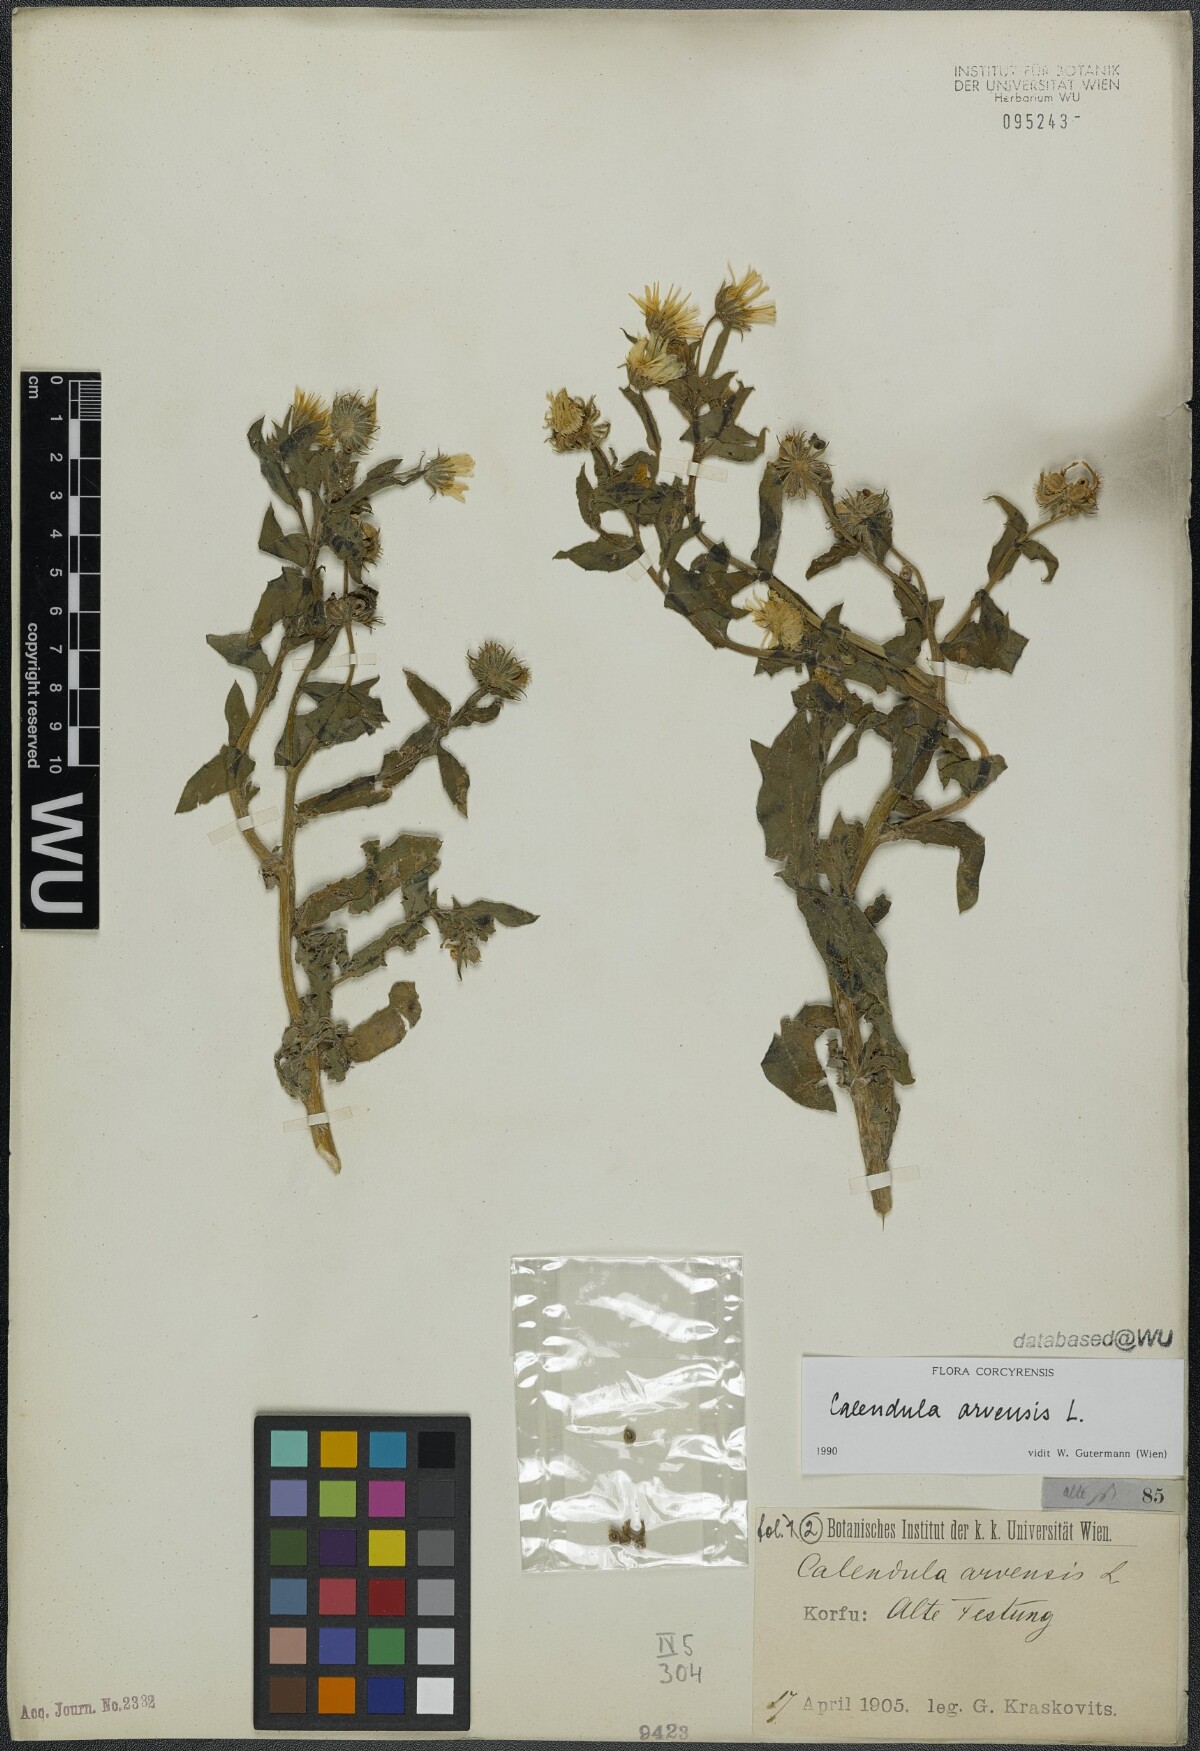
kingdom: Plantae
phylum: Tracheophyta
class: Magnoliopsida
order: Asterales
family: Asteraceae
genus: Calendula
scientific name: Calendula arvensis
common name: Field marigold
